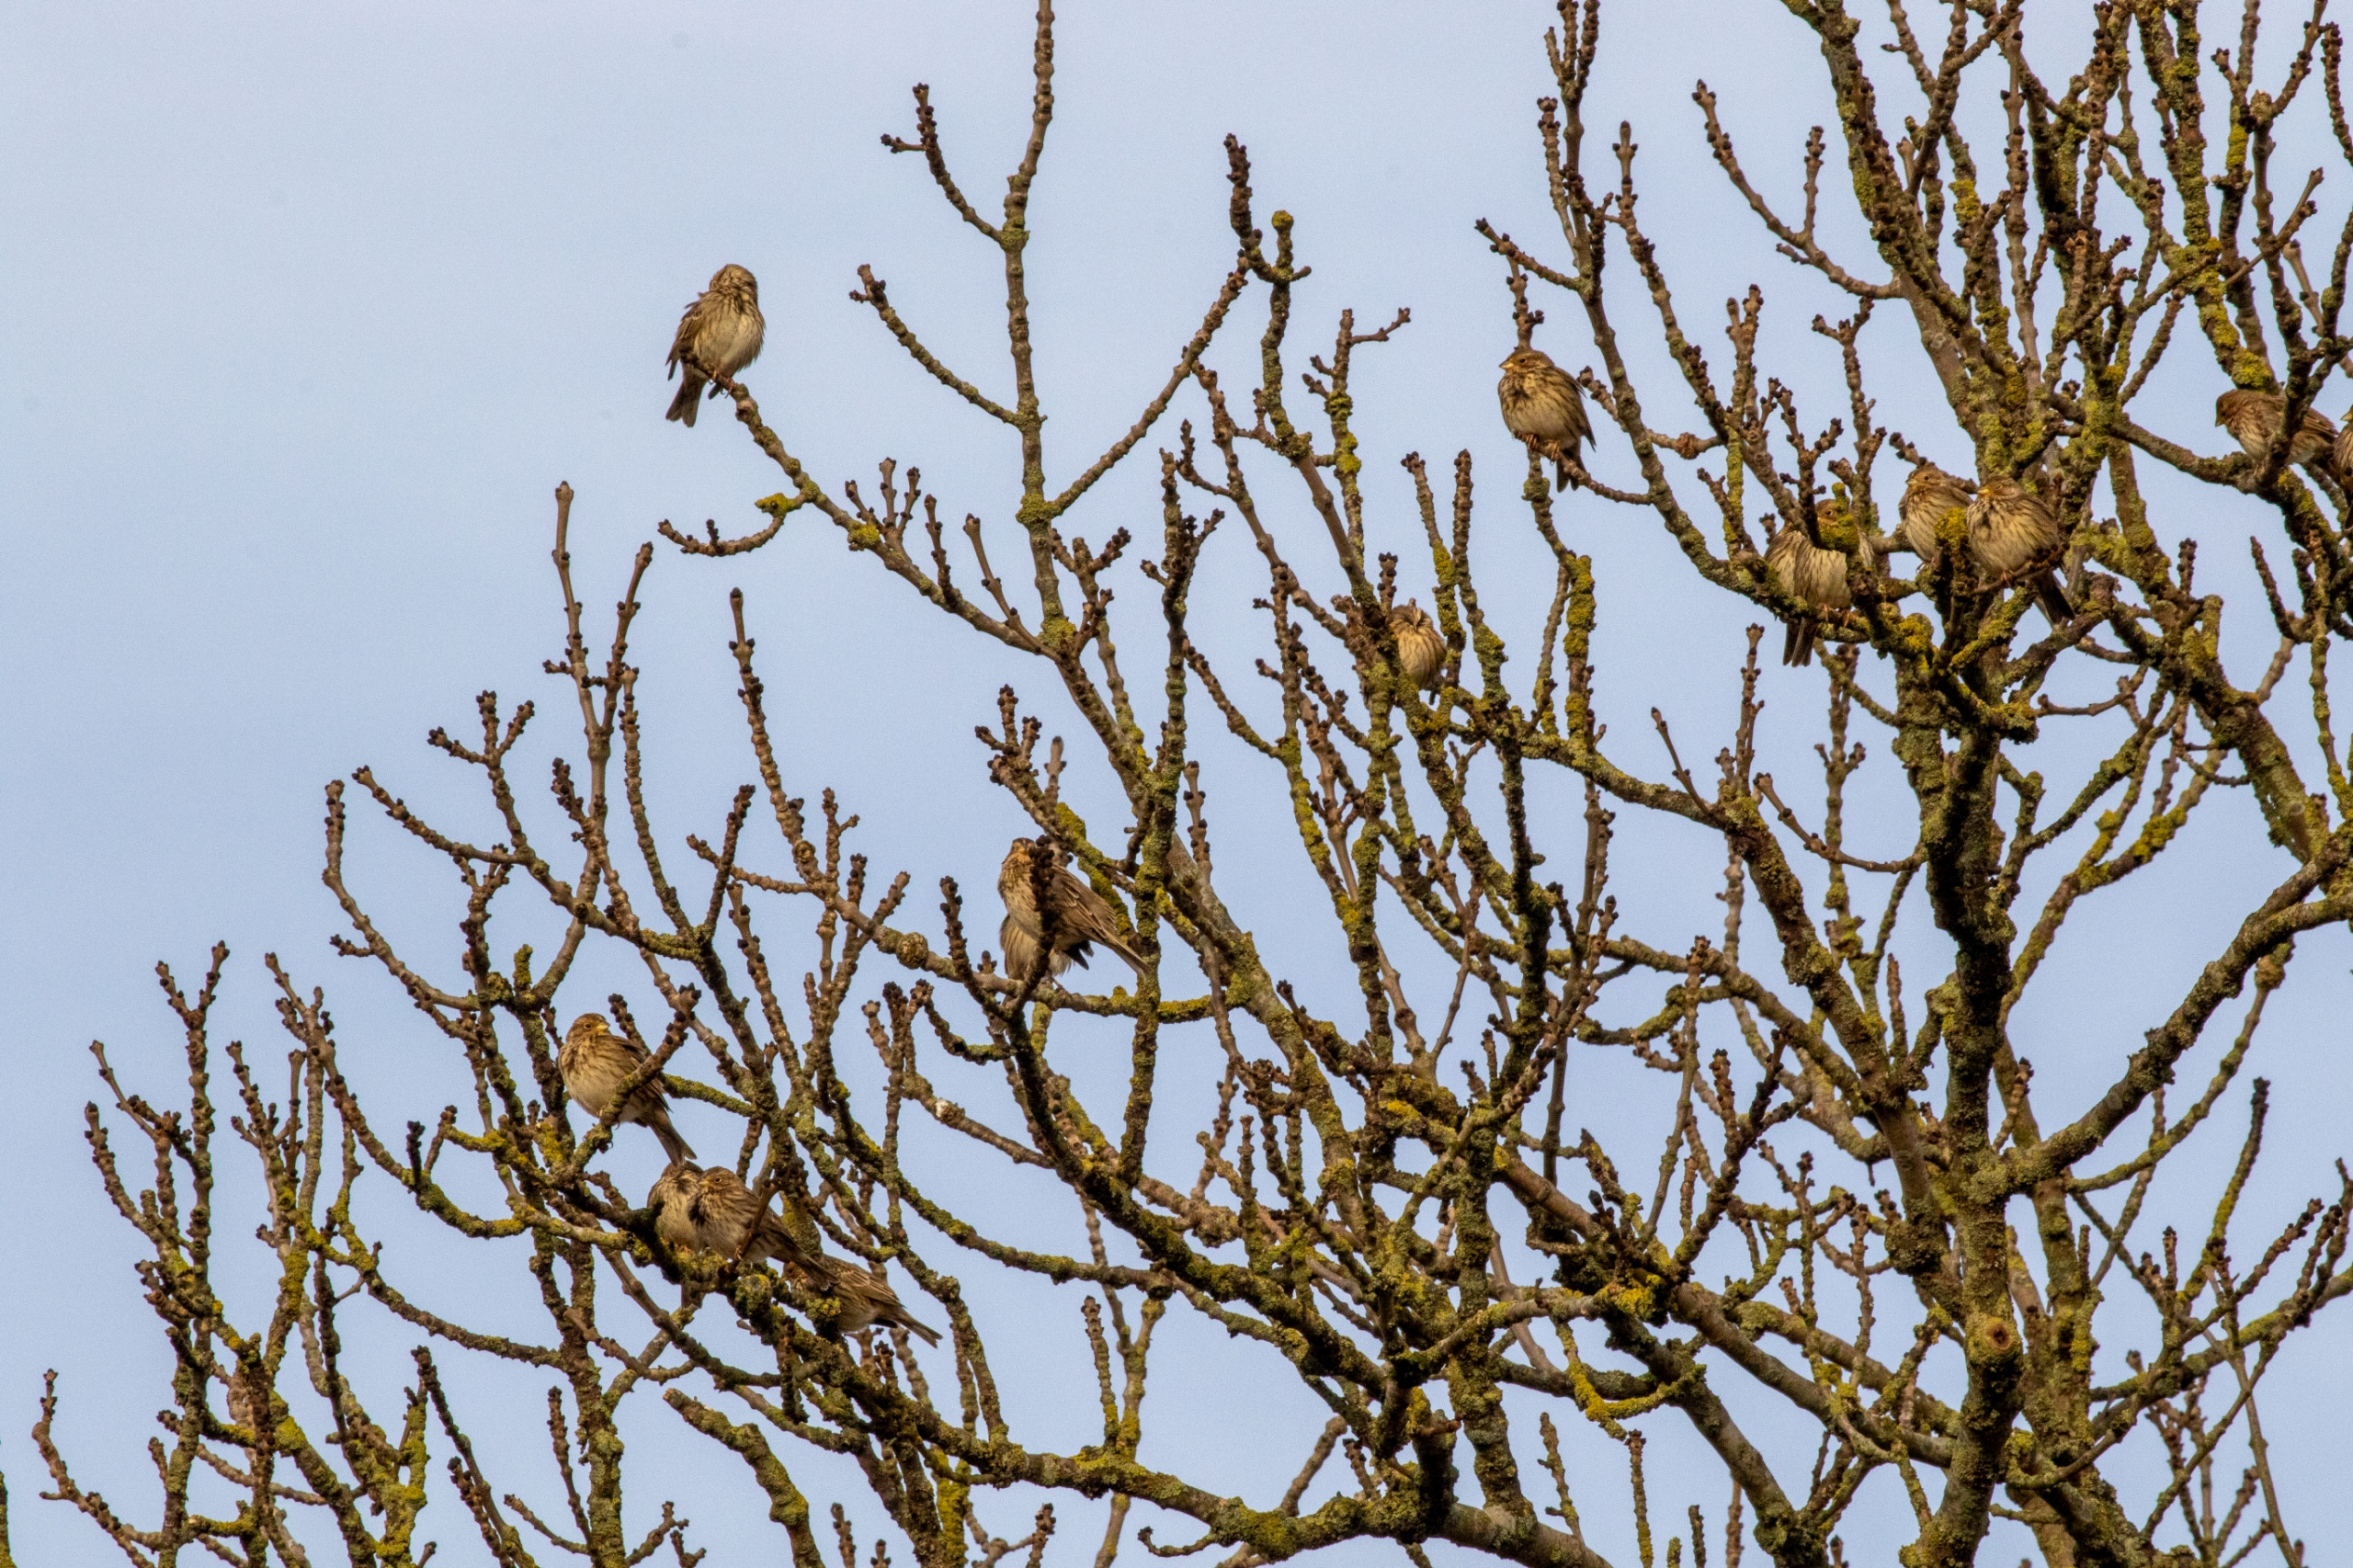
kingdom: Animalia
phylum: Chordata
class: Aves
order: Passeriformes
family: Emberizidae
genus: Emberiza
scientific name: Emberiza calandra
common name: Bomlærke
